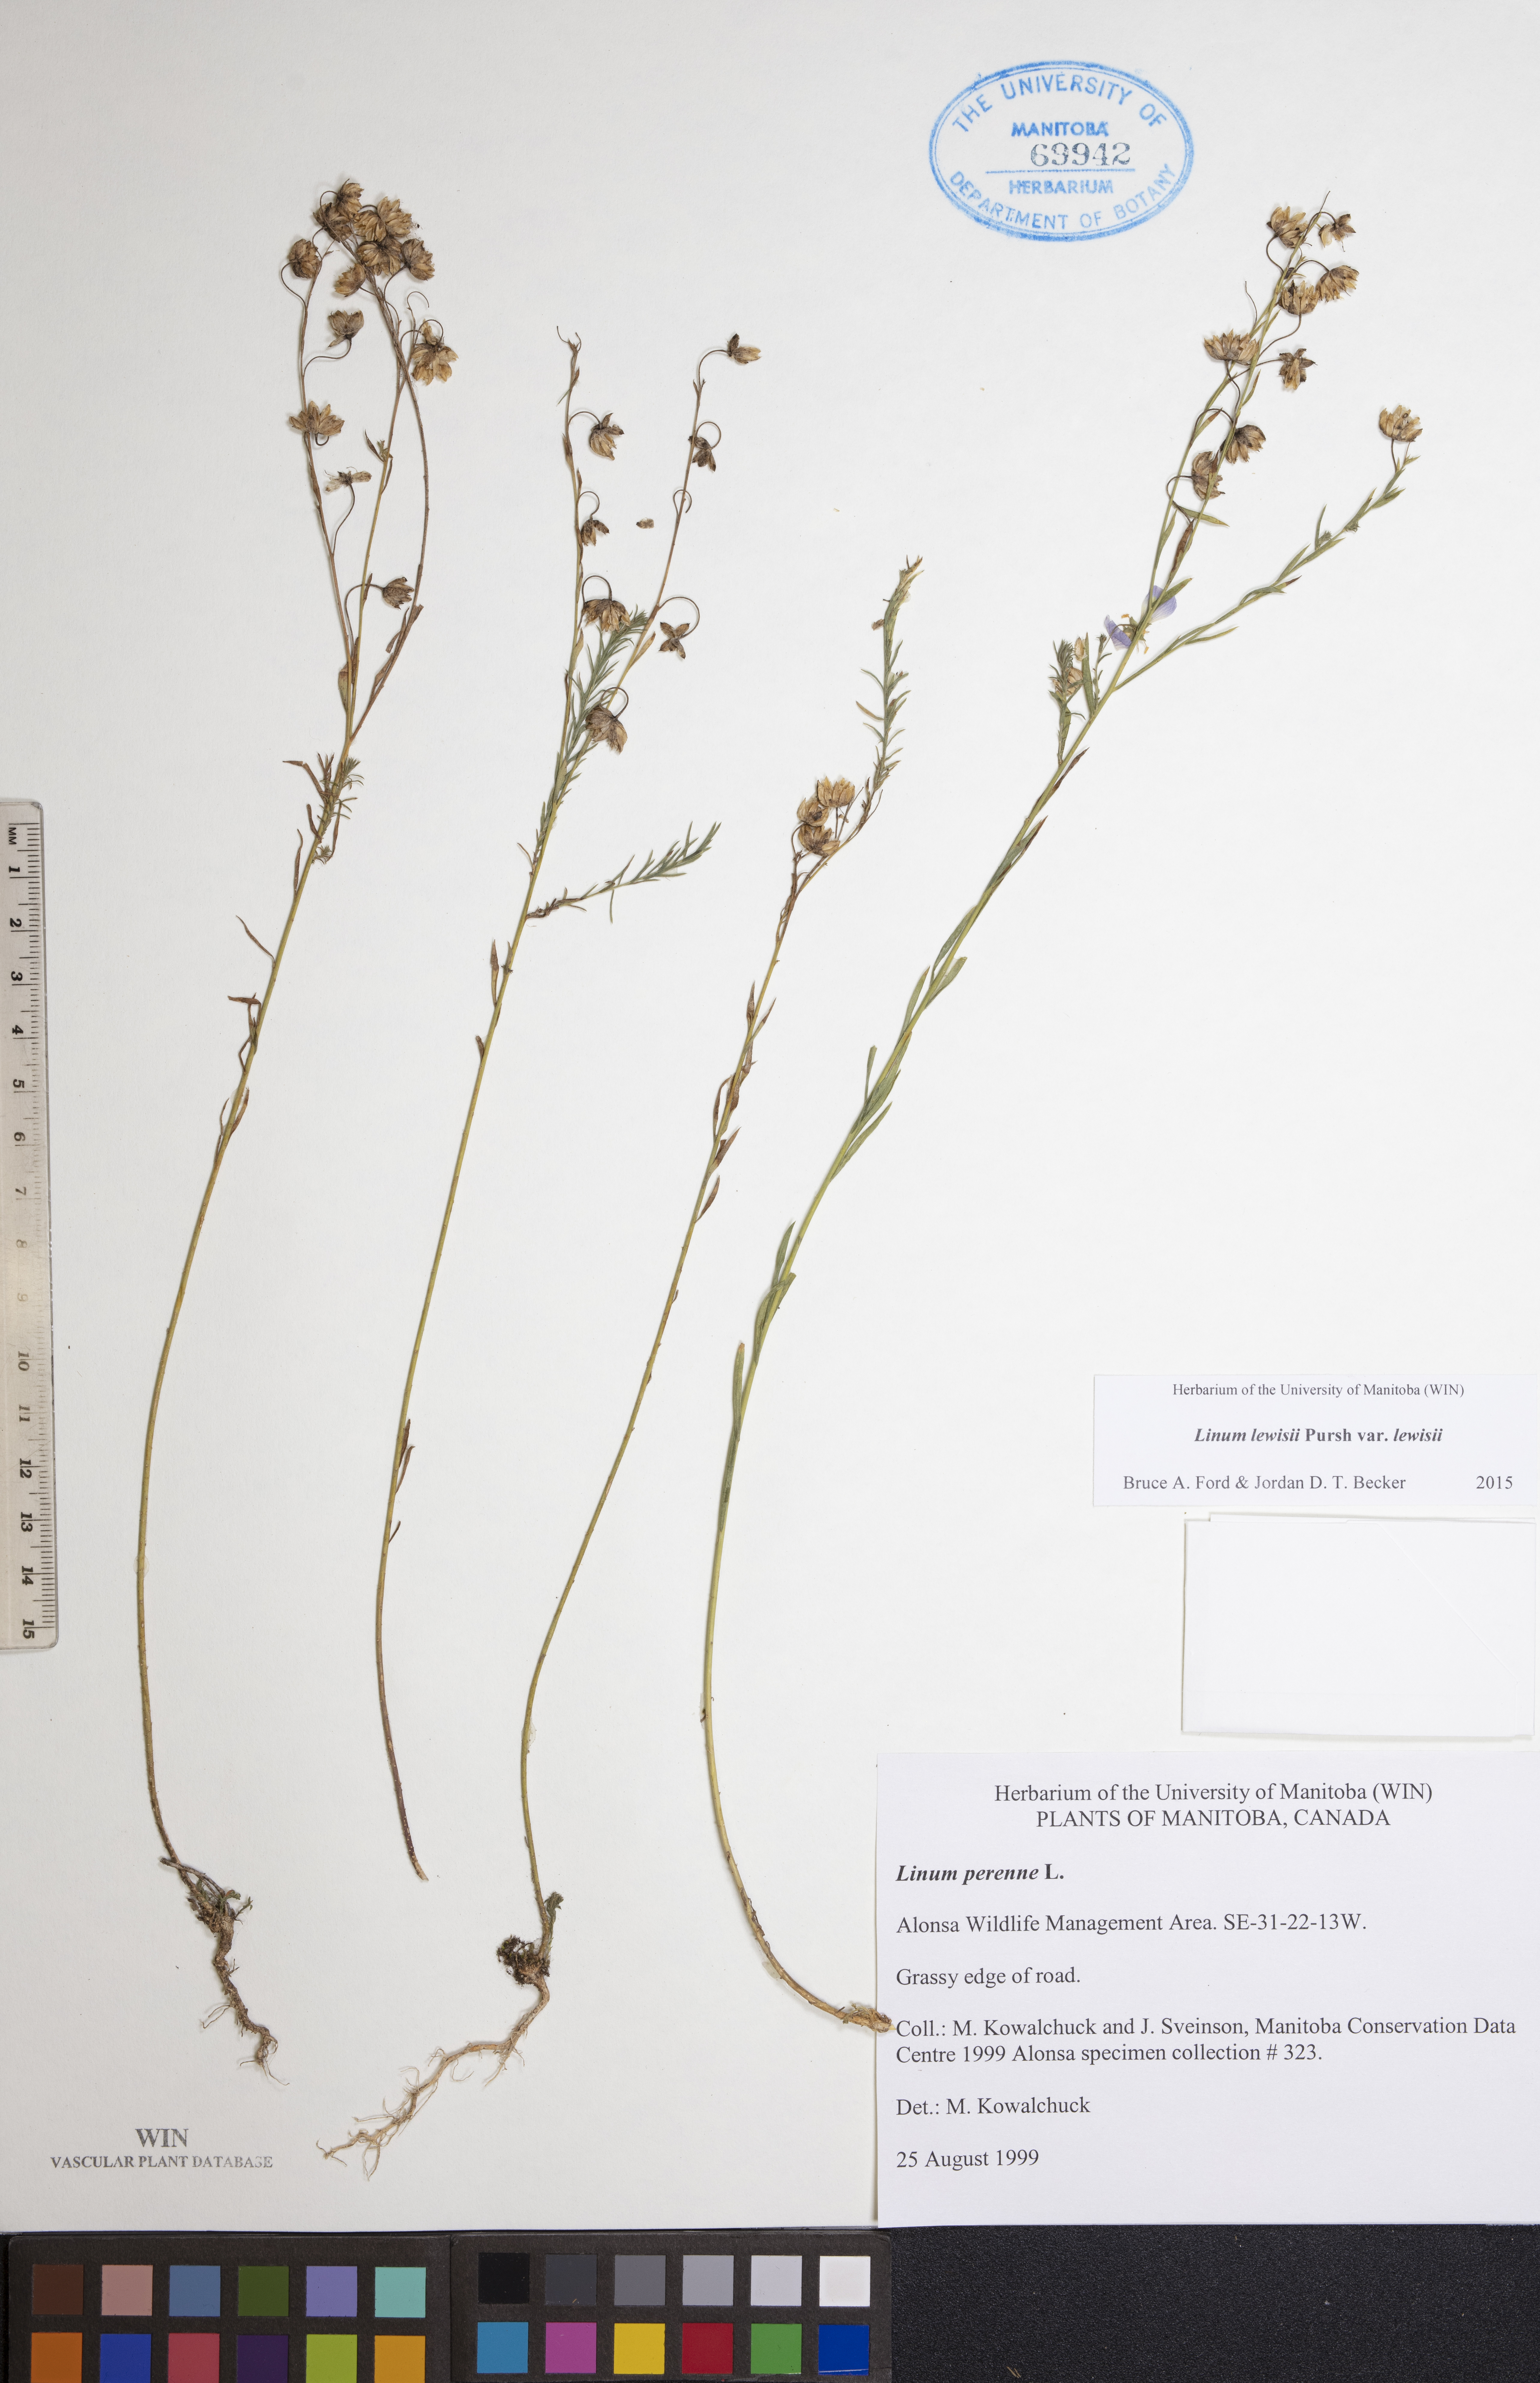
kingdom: Plantae
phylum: Tracheophyta
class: Magnoliopsida
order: Malpighiales
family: Linaceae
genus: Linum
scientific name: Linum lewisii
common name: Prairie flax
